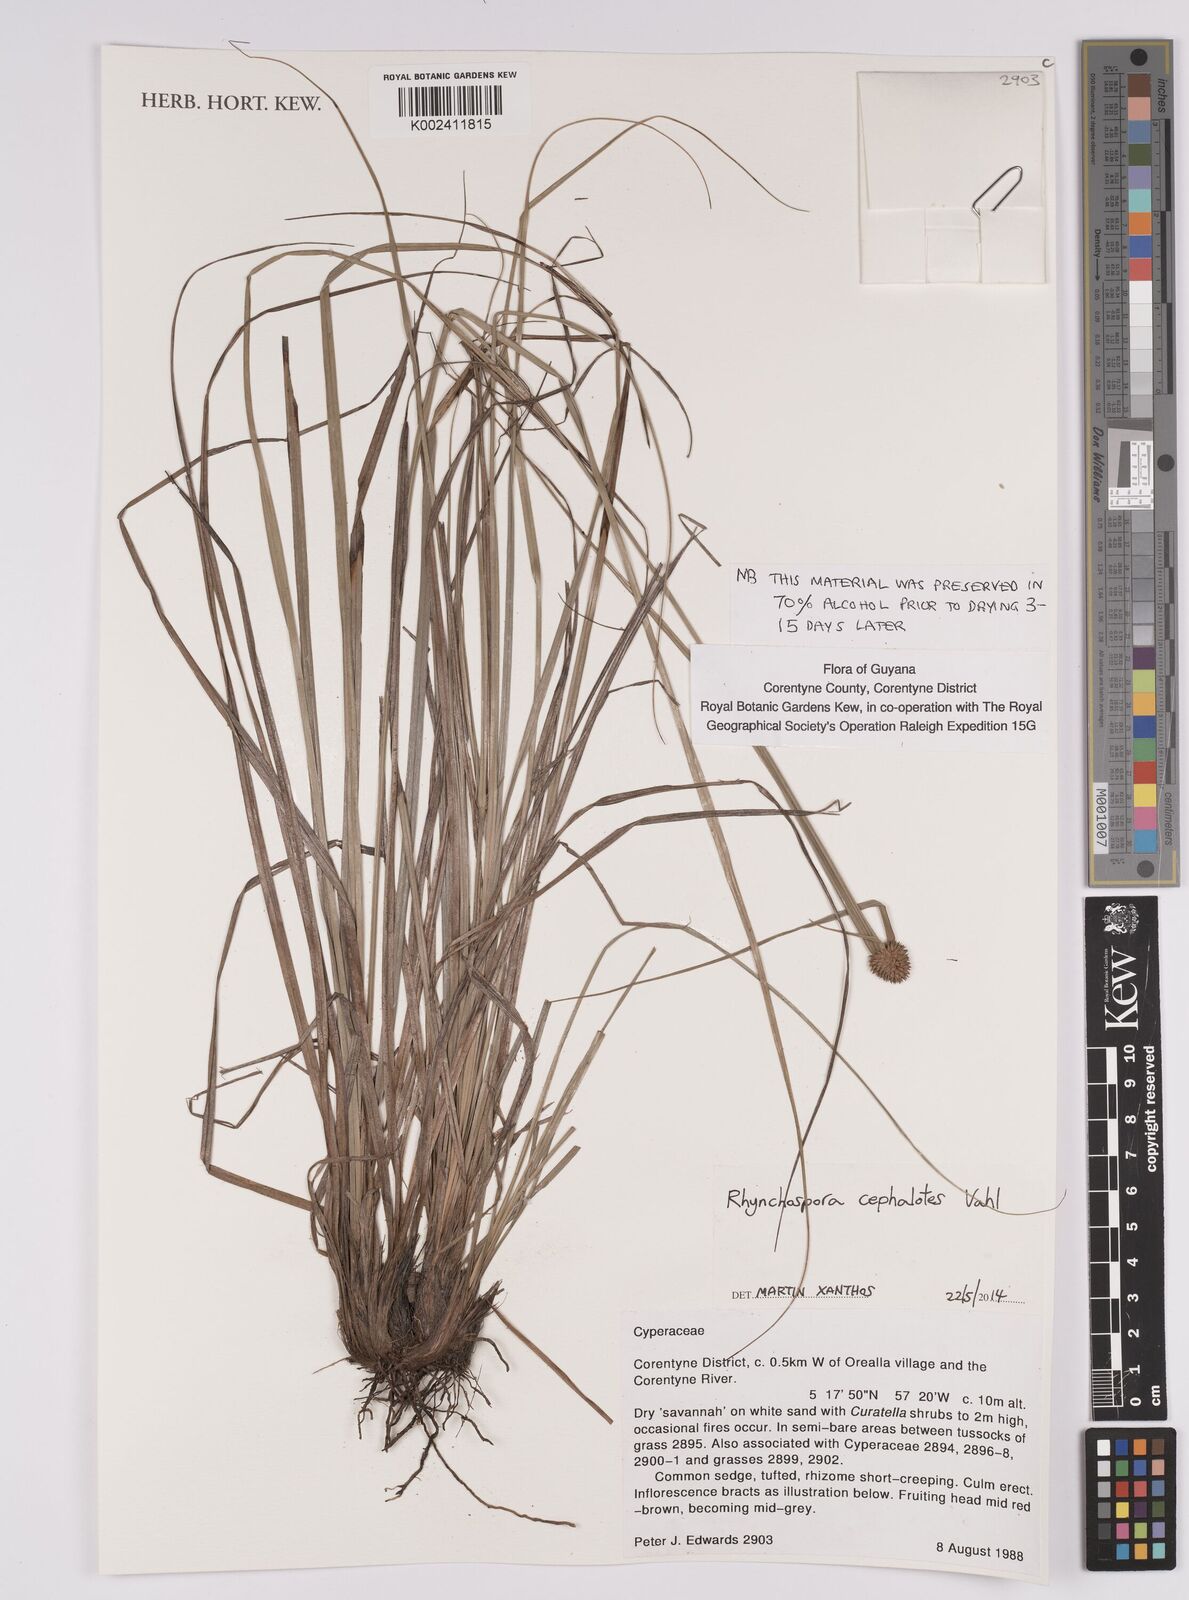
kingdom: Plantae
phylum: Tracheophyta
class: Liliopsida
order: Poales
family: Cyperaceae
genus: Rhynchospora
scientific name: Rhynchospora cephalotes
